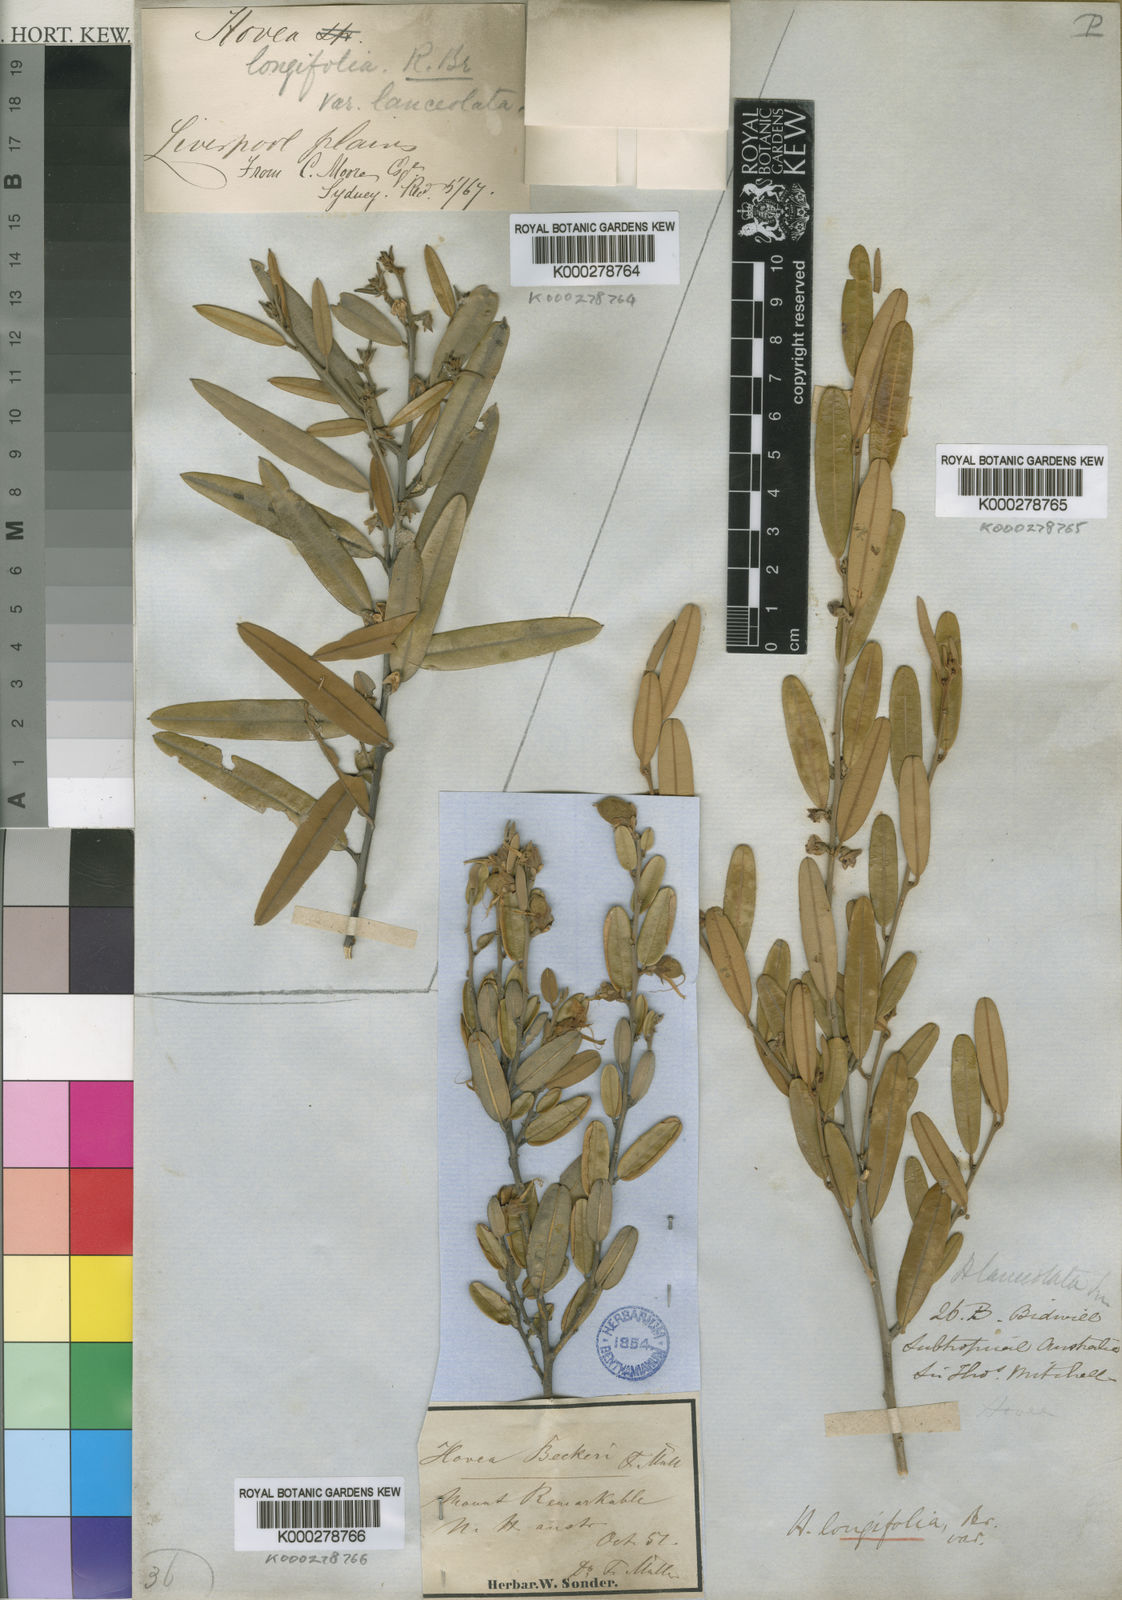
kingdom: Plantae
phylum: Tracheophyta
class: Magnoliopsida
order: Fabales
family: Fabaceae
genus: Hovea
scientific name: Hovea lanceolata
